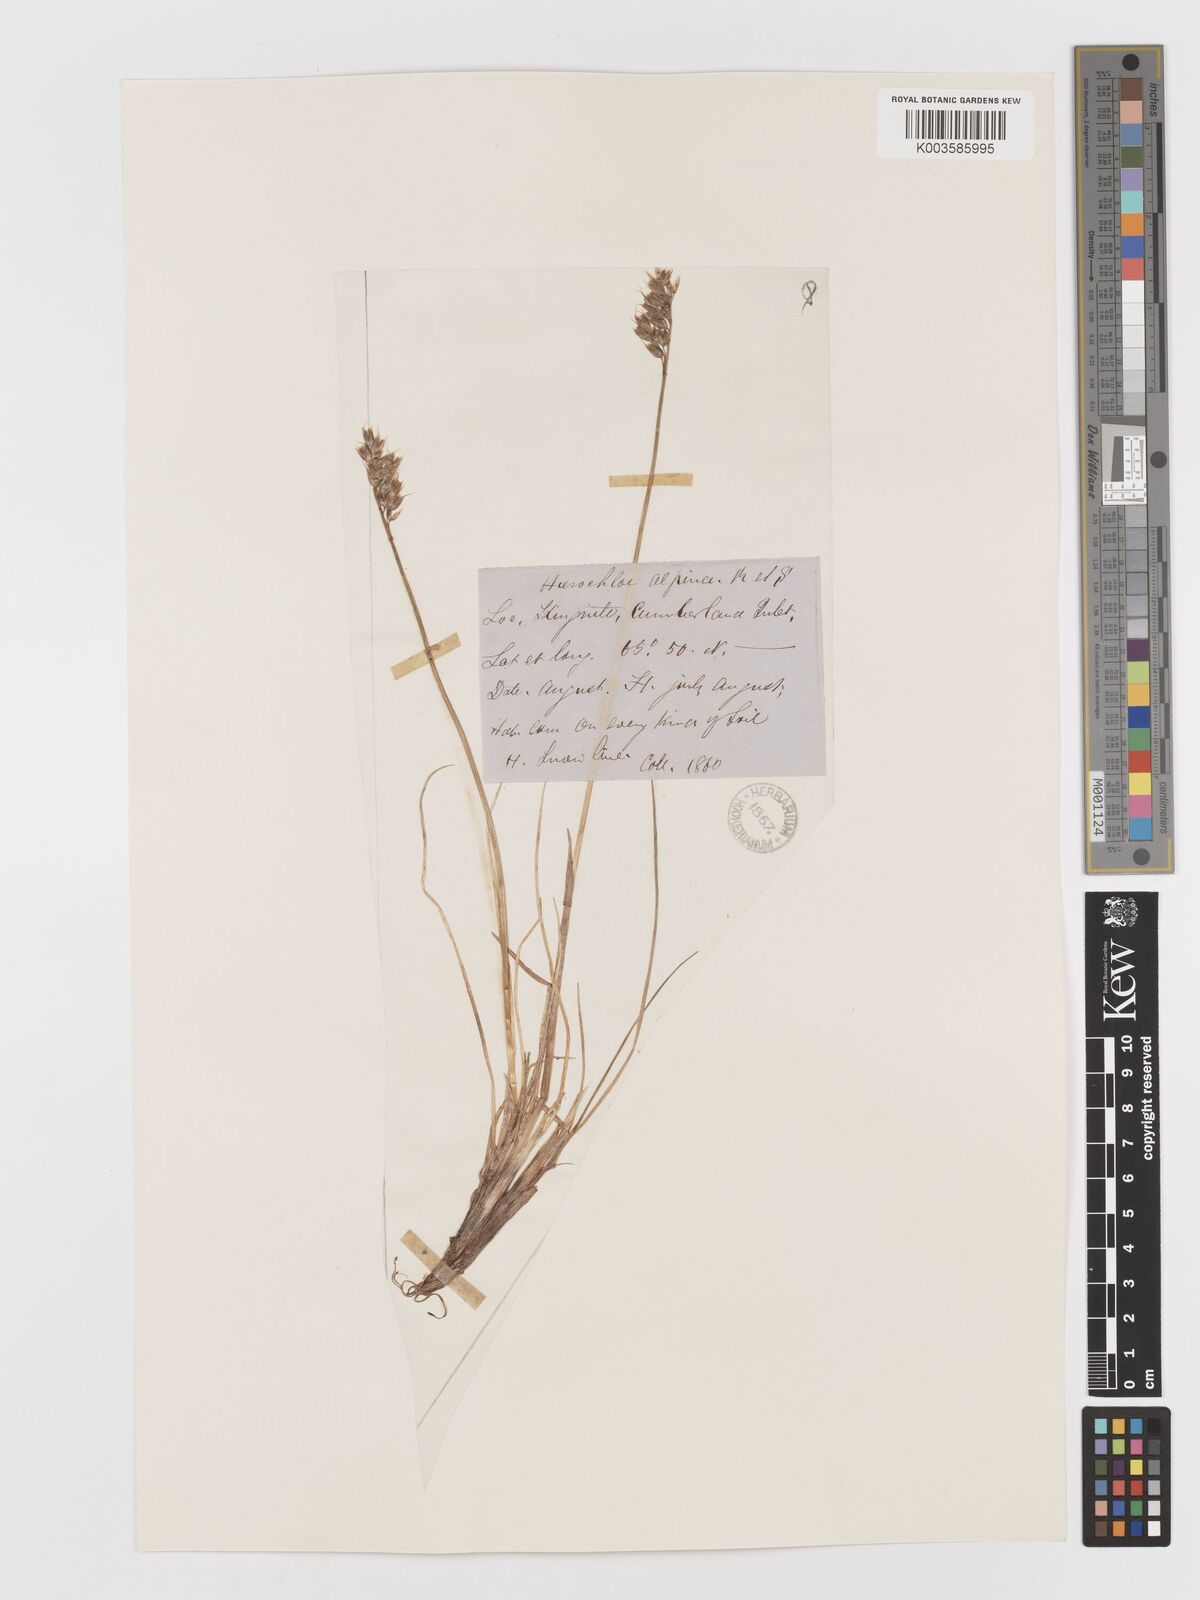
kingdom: Plantae
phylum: Tracheophyta
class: Liliopsida
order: Poales
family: Poaceae
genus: Anthoxanthum
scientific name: Anthoxanthum monticola
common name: Alpine sweetgrass
